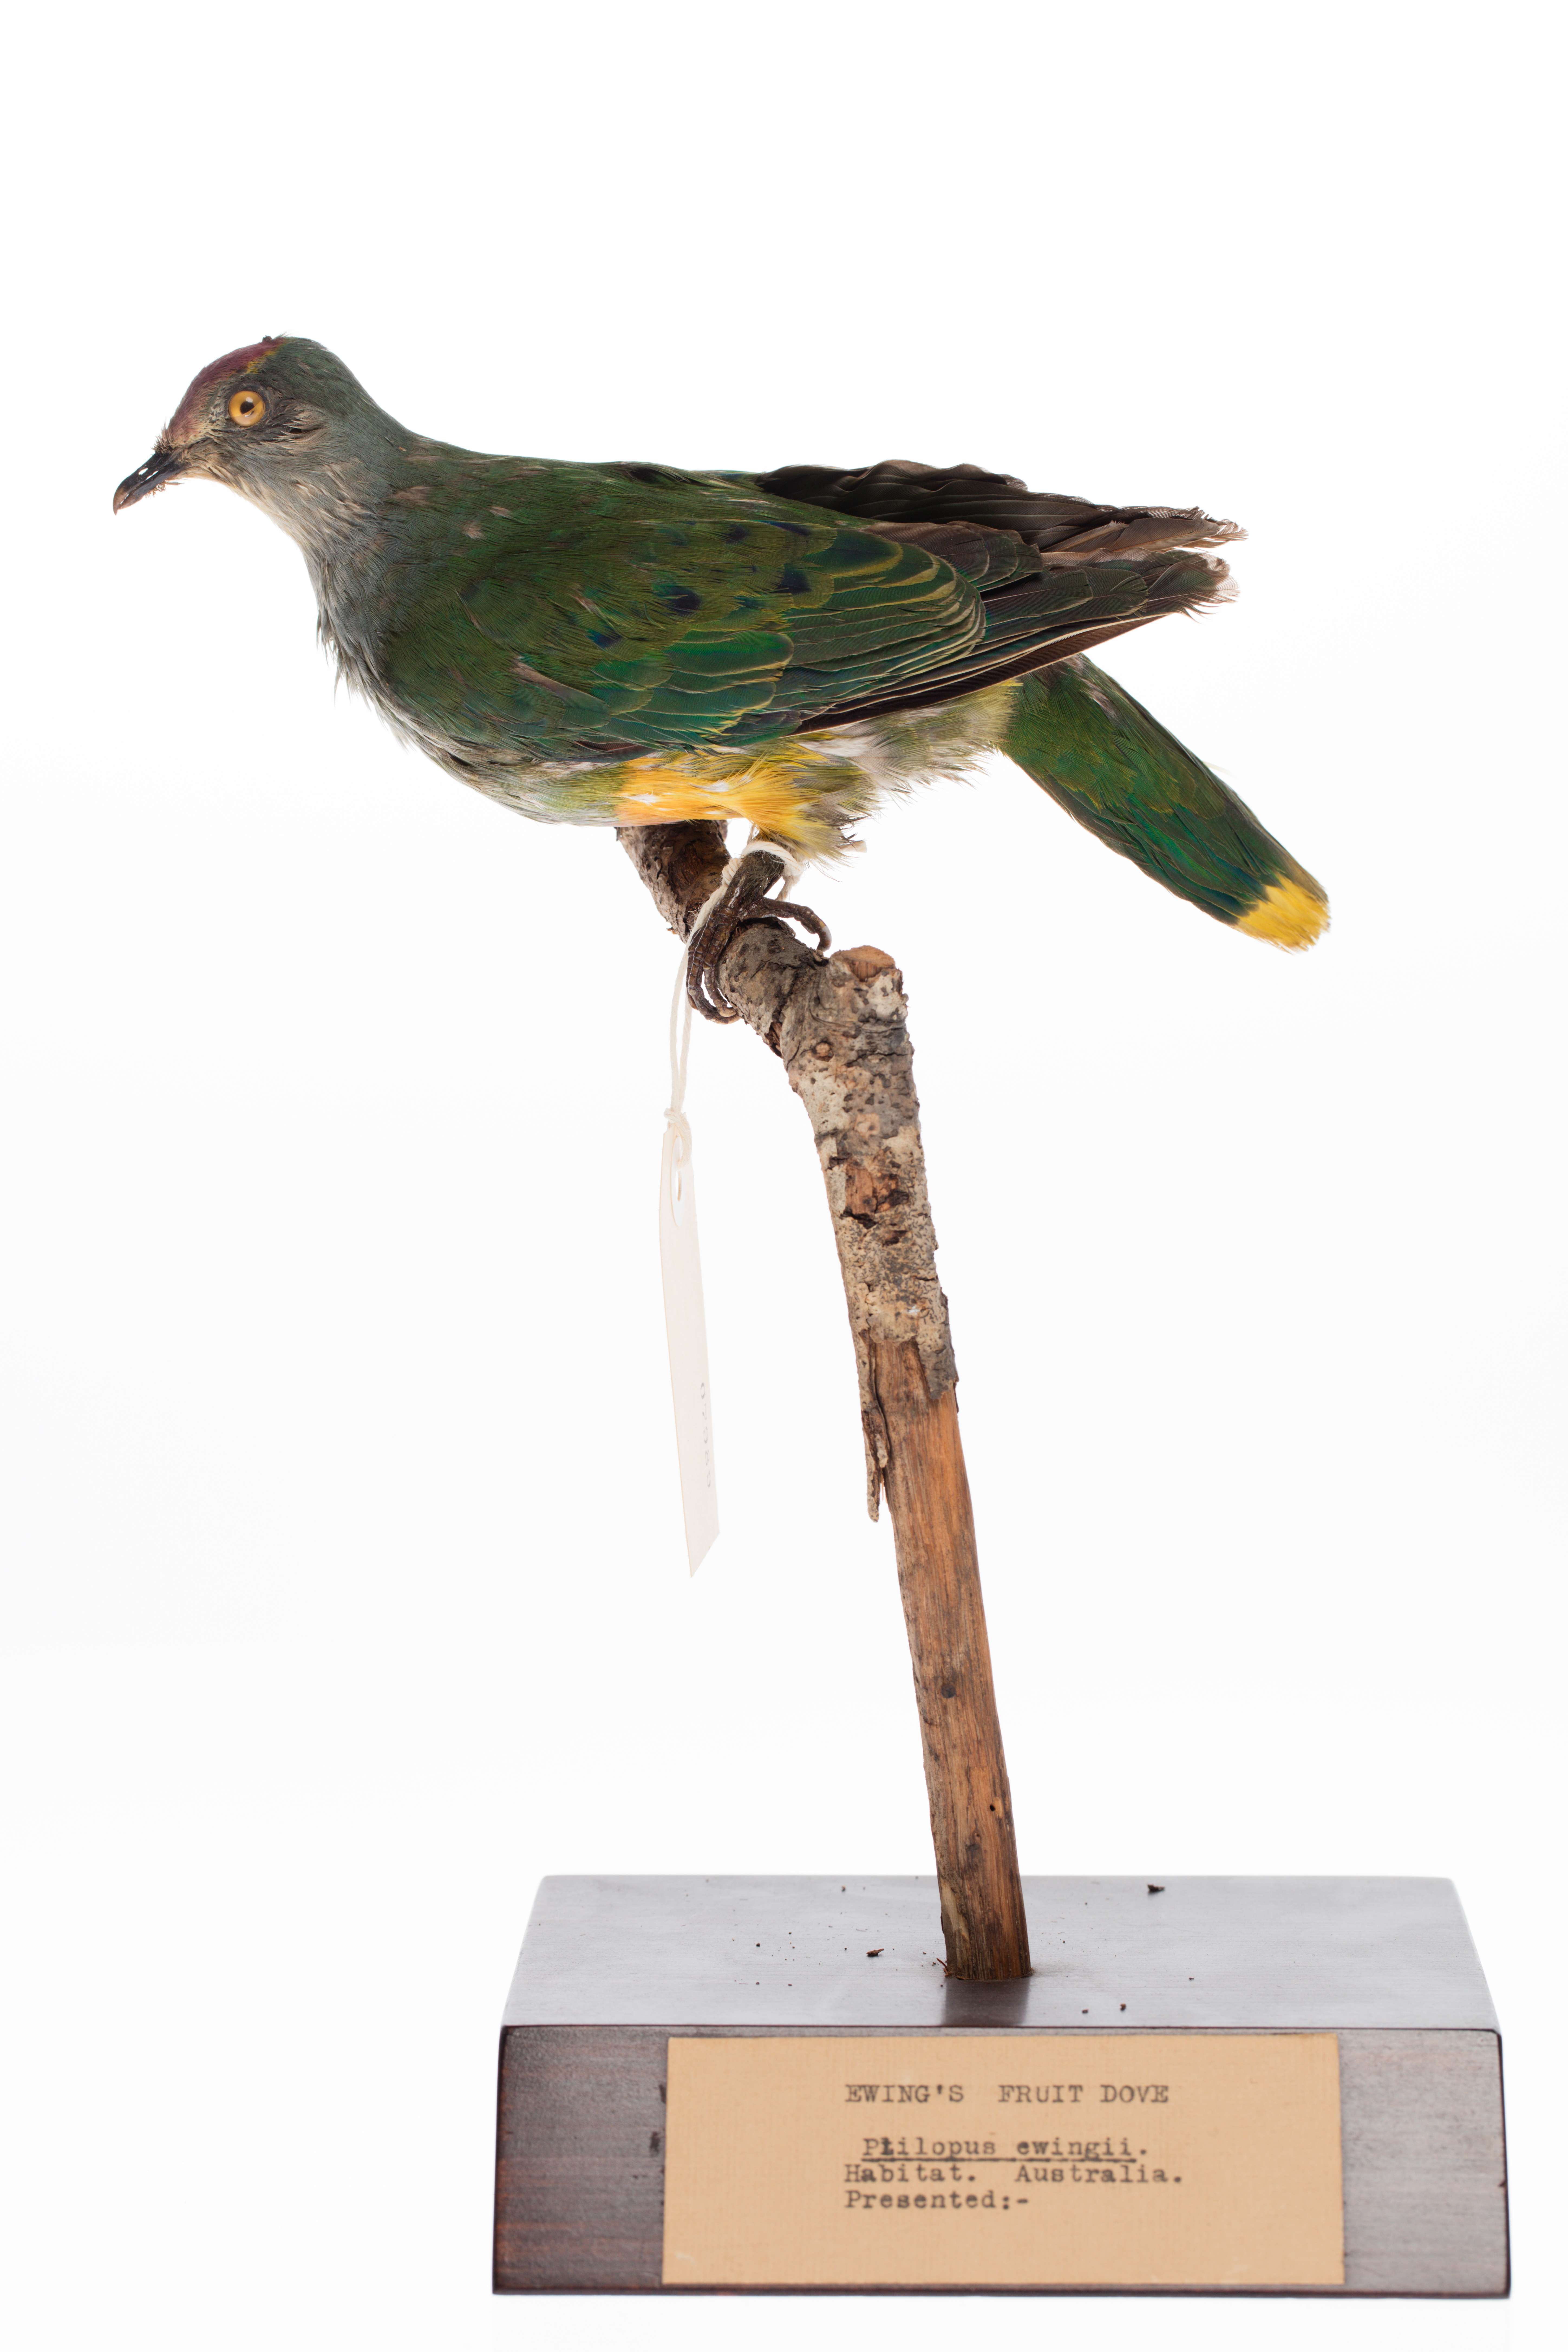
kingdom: Animalia
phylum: Chordata
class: Aves
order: Columbiformes
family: Columbidae
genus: Ptilinopus
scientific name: Ptilinopus regina
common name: Rose-crowned fruit dove
